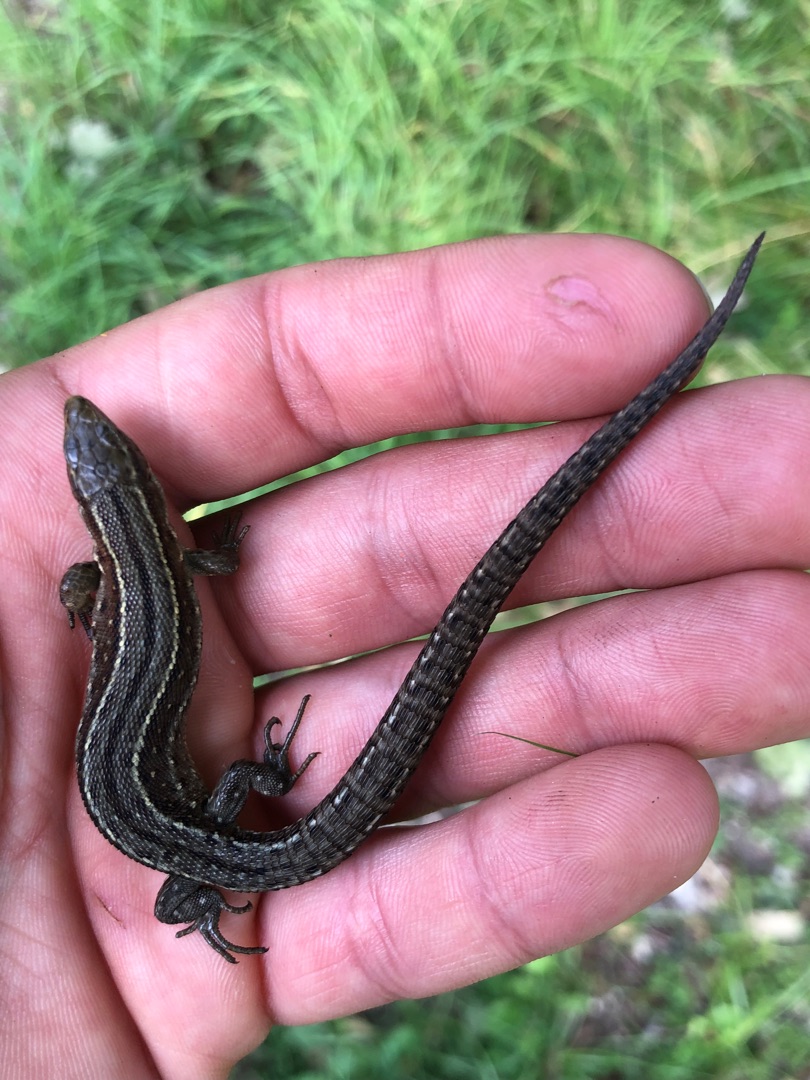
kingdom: Animalia
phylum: Chordata
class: Squamata
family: Lacertidae
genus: Zootoca
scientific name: Zootoca vivipara
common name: Skovfirben
